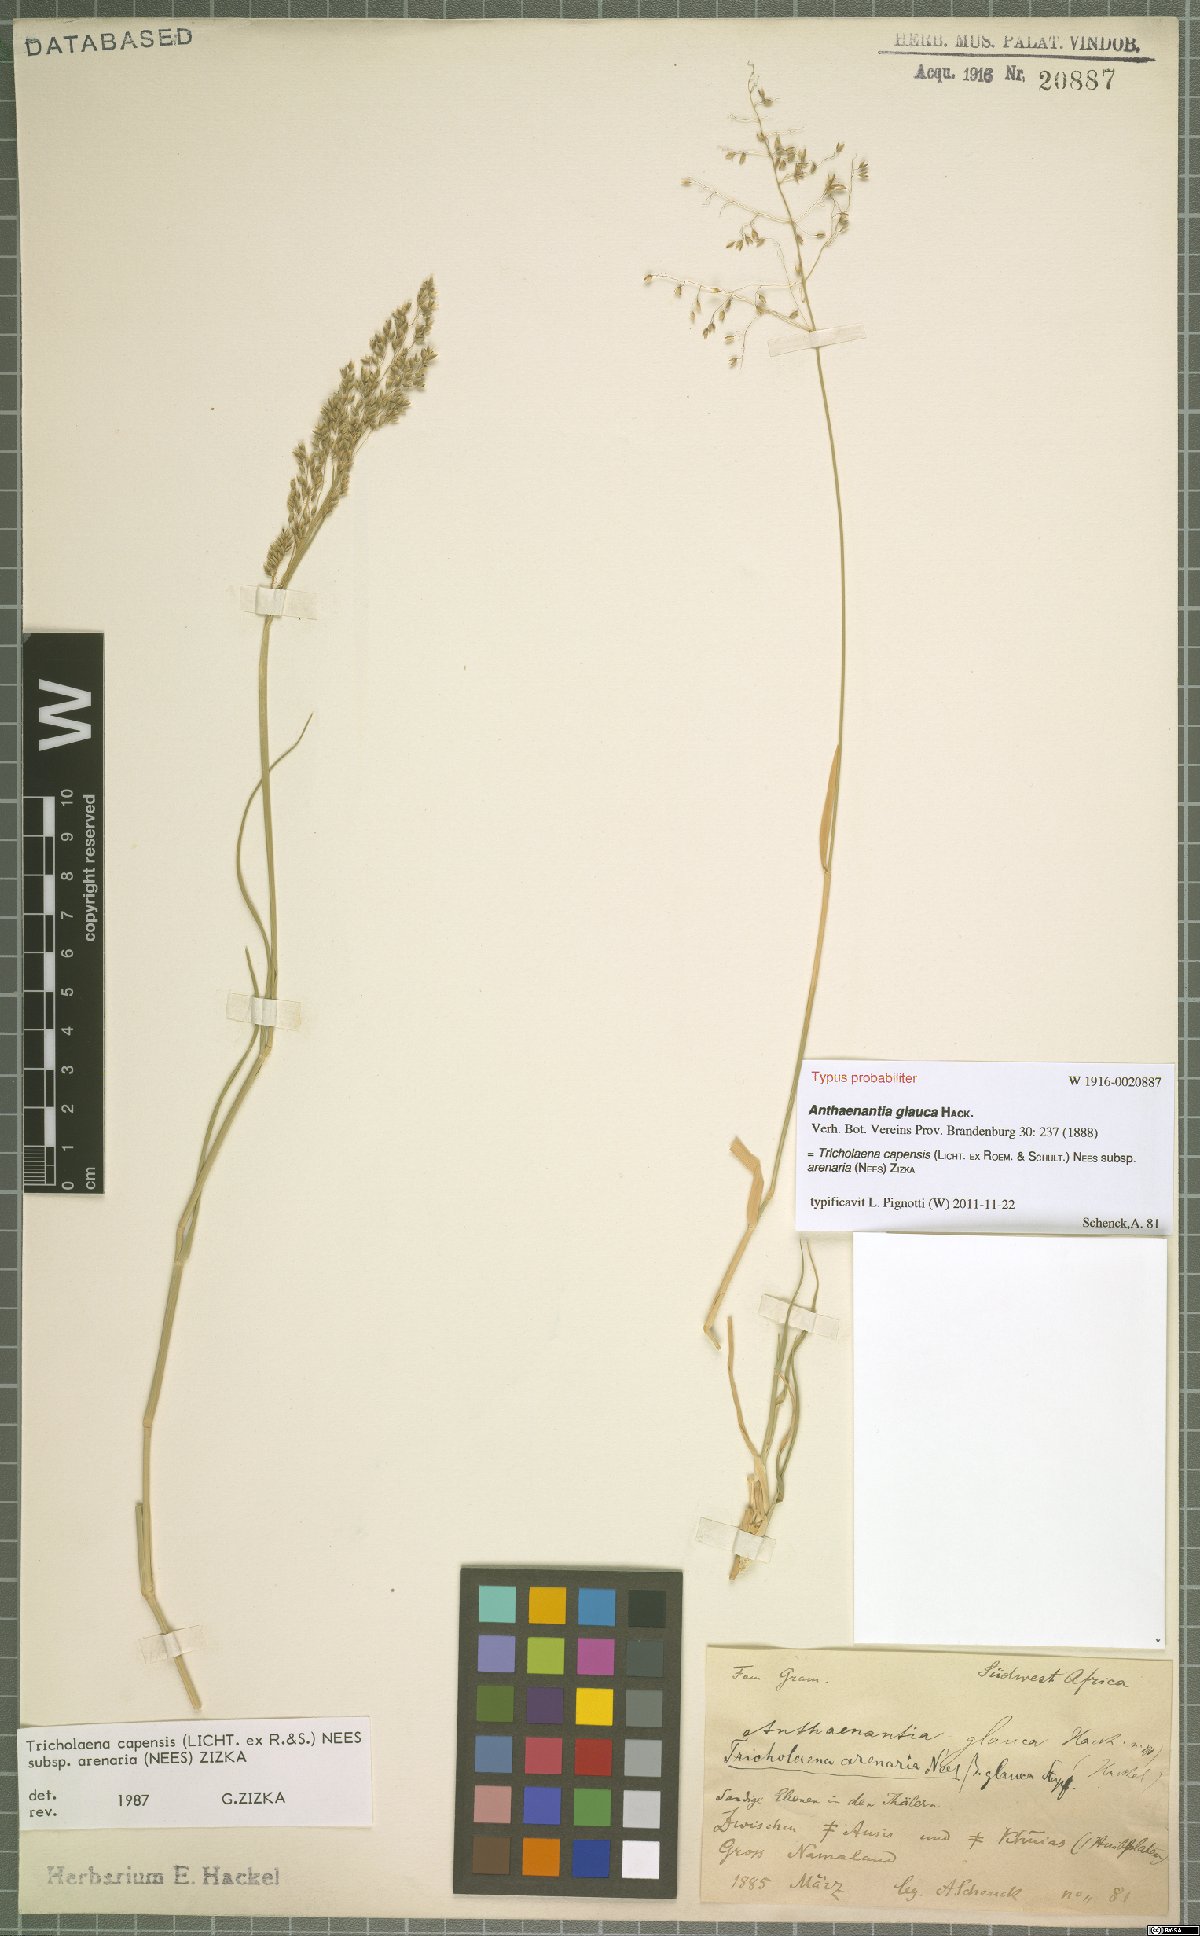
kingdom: Plantae
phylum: Tracheophyta
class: Liliopsida
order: Poales
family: Poaceae
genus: Tricholaena
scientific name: Tricholaena capensis
